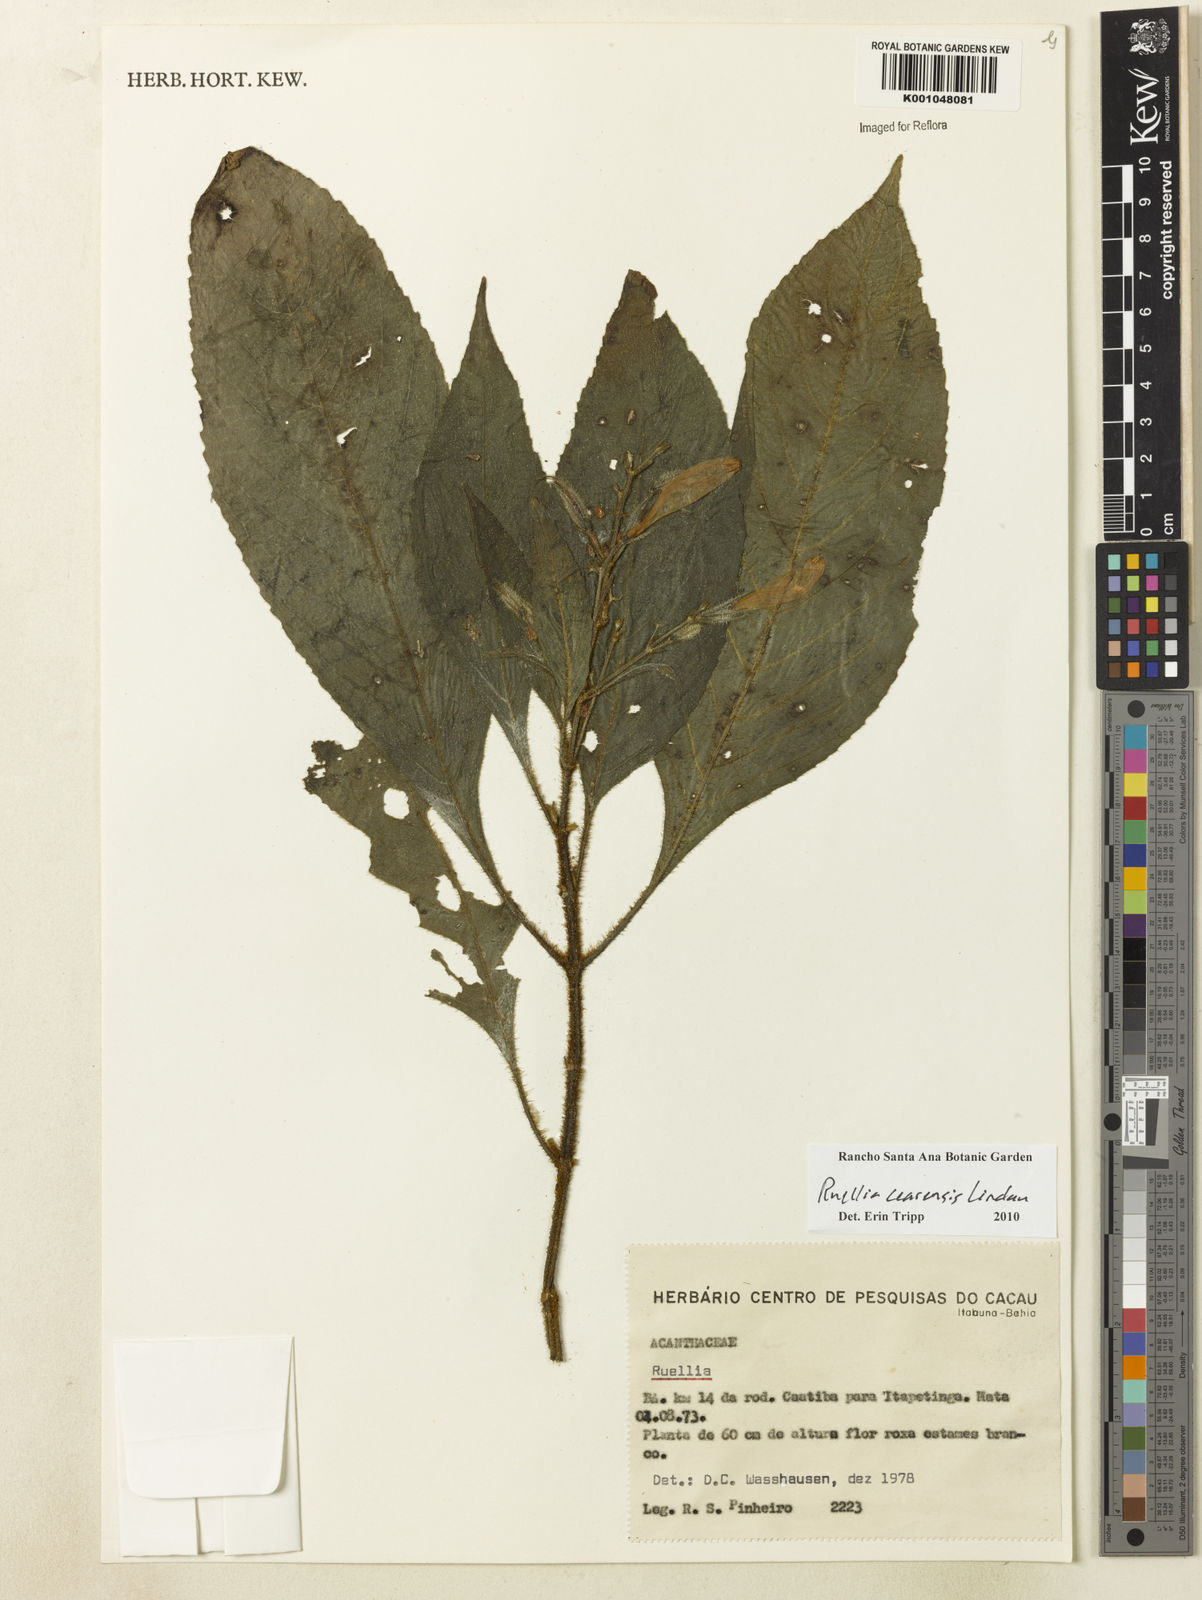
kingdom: Plantae
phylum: Tracheophyta
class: Magnoliopsida
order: Lamiales
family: Acanthaceae
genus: Ruellia
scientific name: Ruellia cearensis
